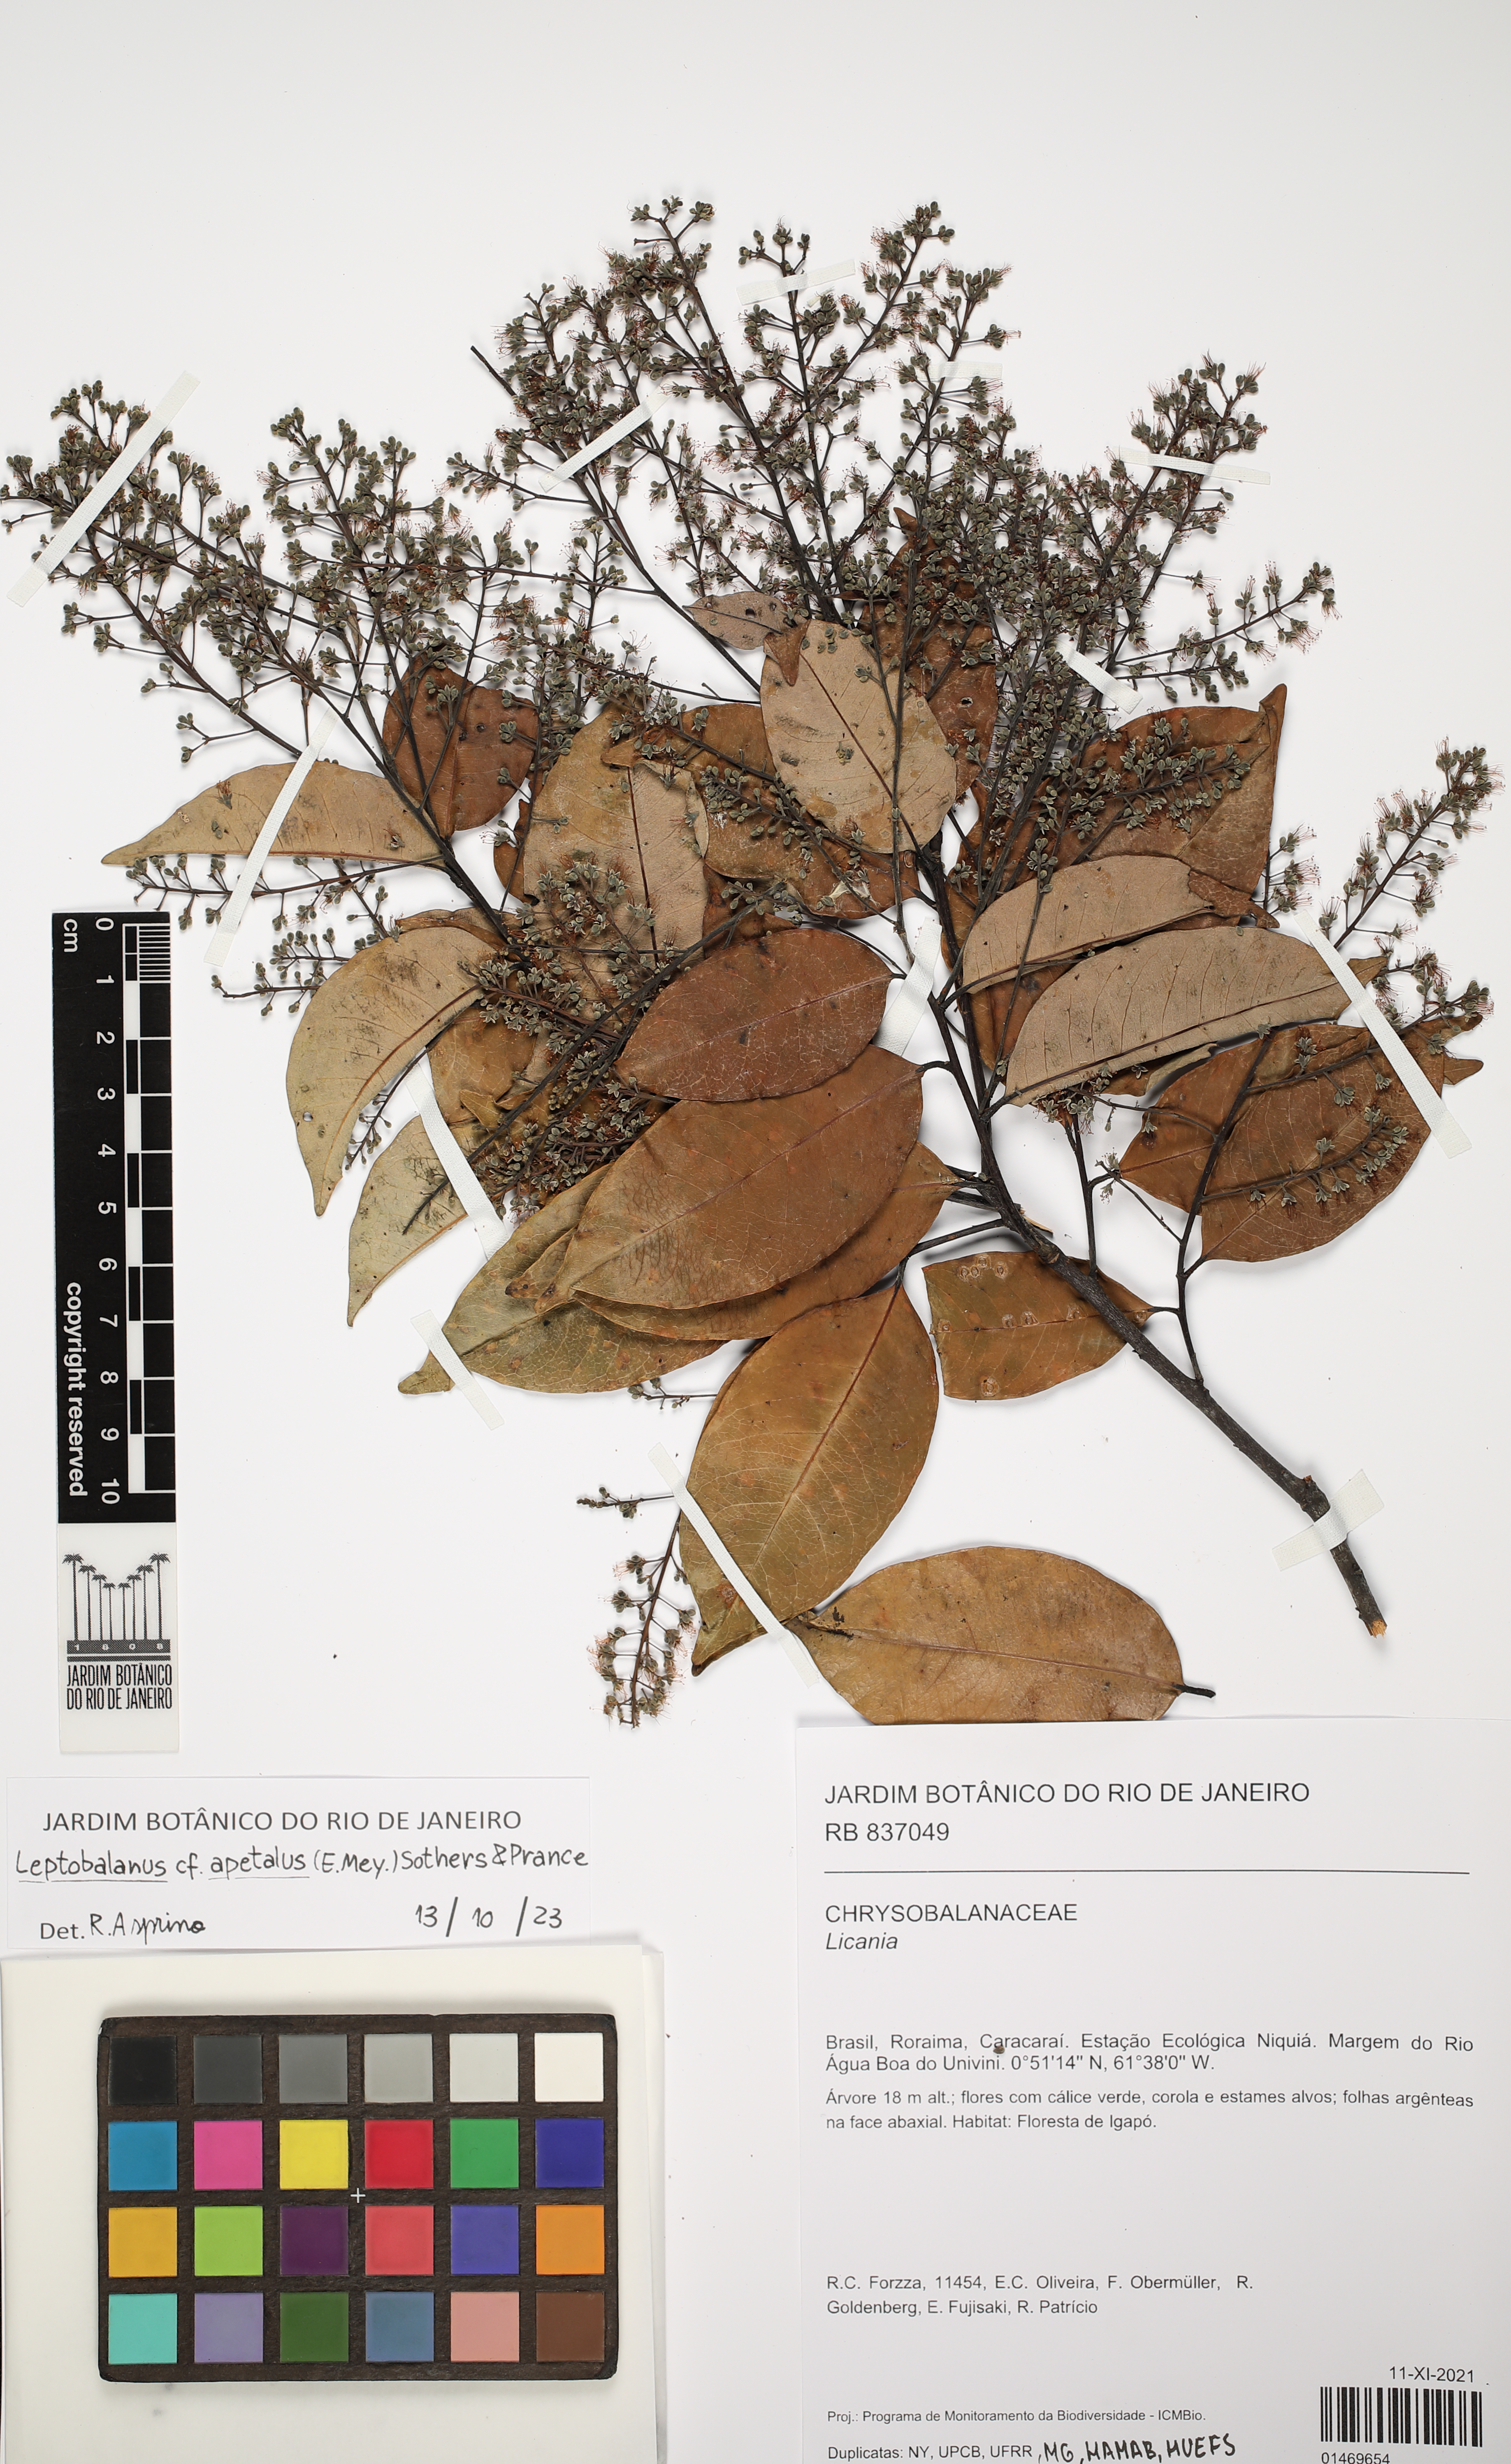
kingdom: Plantae
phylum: Tracheophyta
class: Magnoliopsida
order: Malpighiales
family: Chrysobalanaceae
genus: Leptobalanus
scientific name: Leptobalanus apetalus
